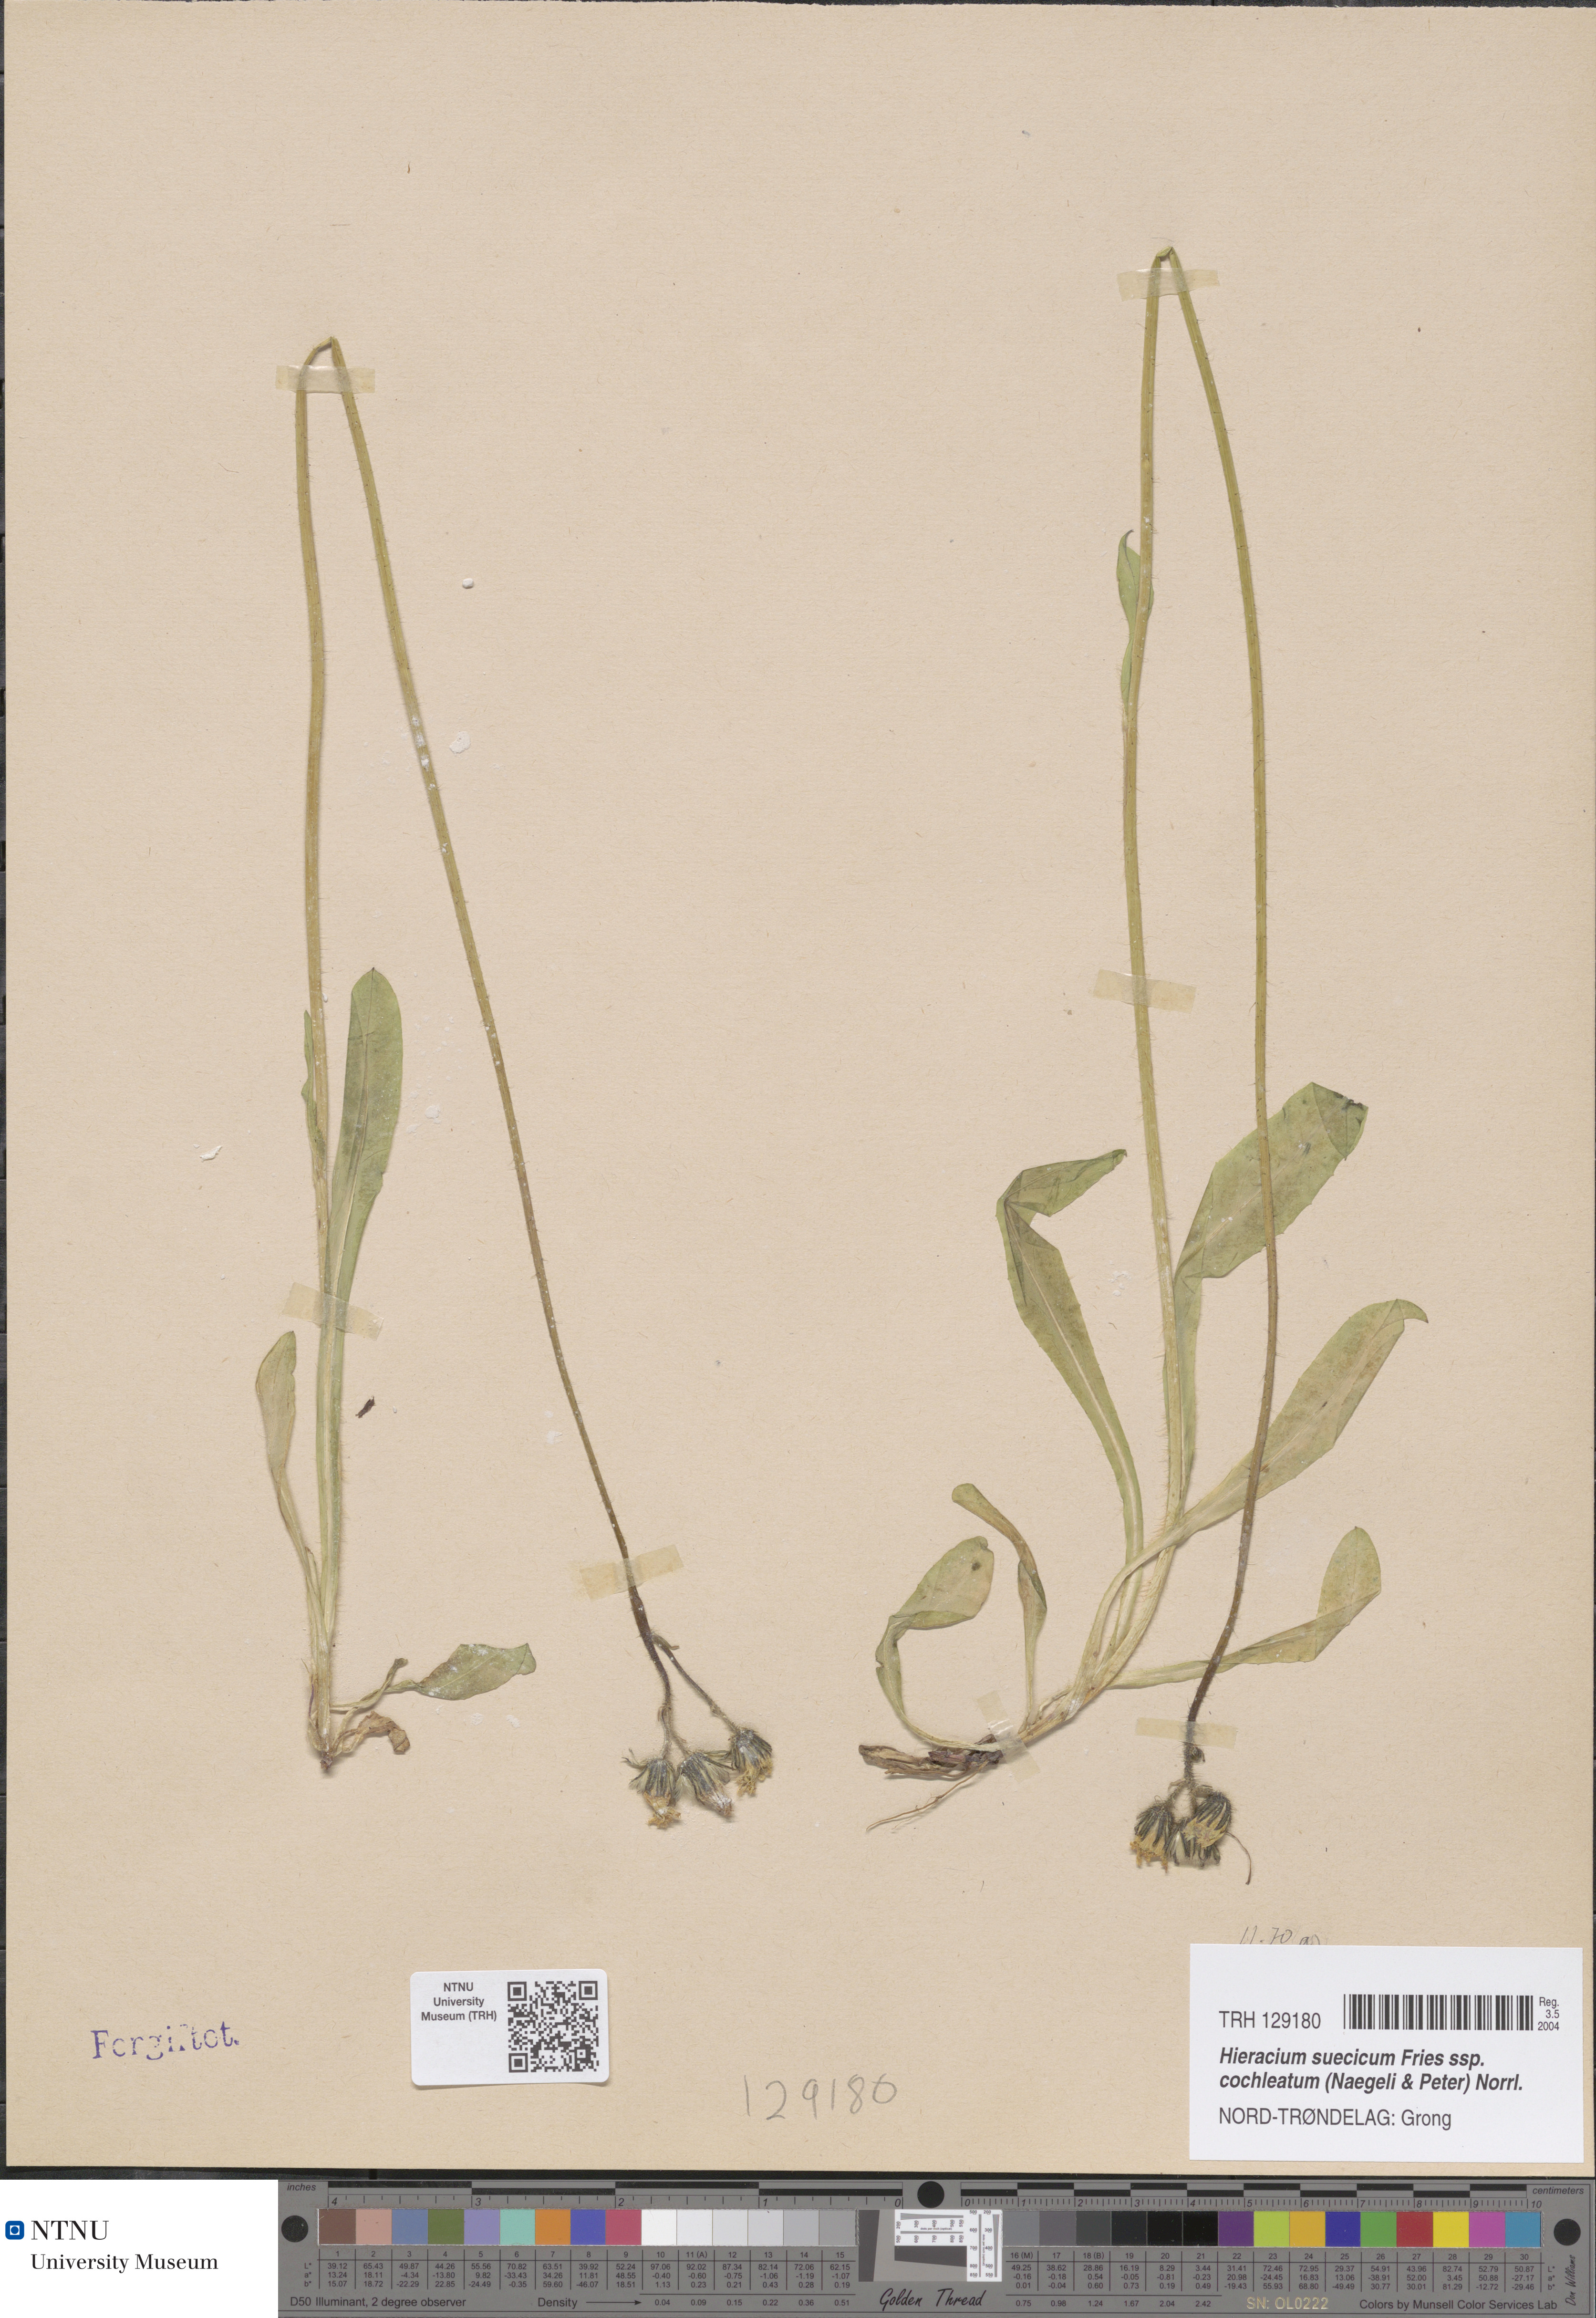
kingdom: Plantae
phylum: Tracheophyta
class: Magnoliopsida
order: Asterales
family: Asteraceae
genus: Pilosella
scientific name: Pilosella dubia
